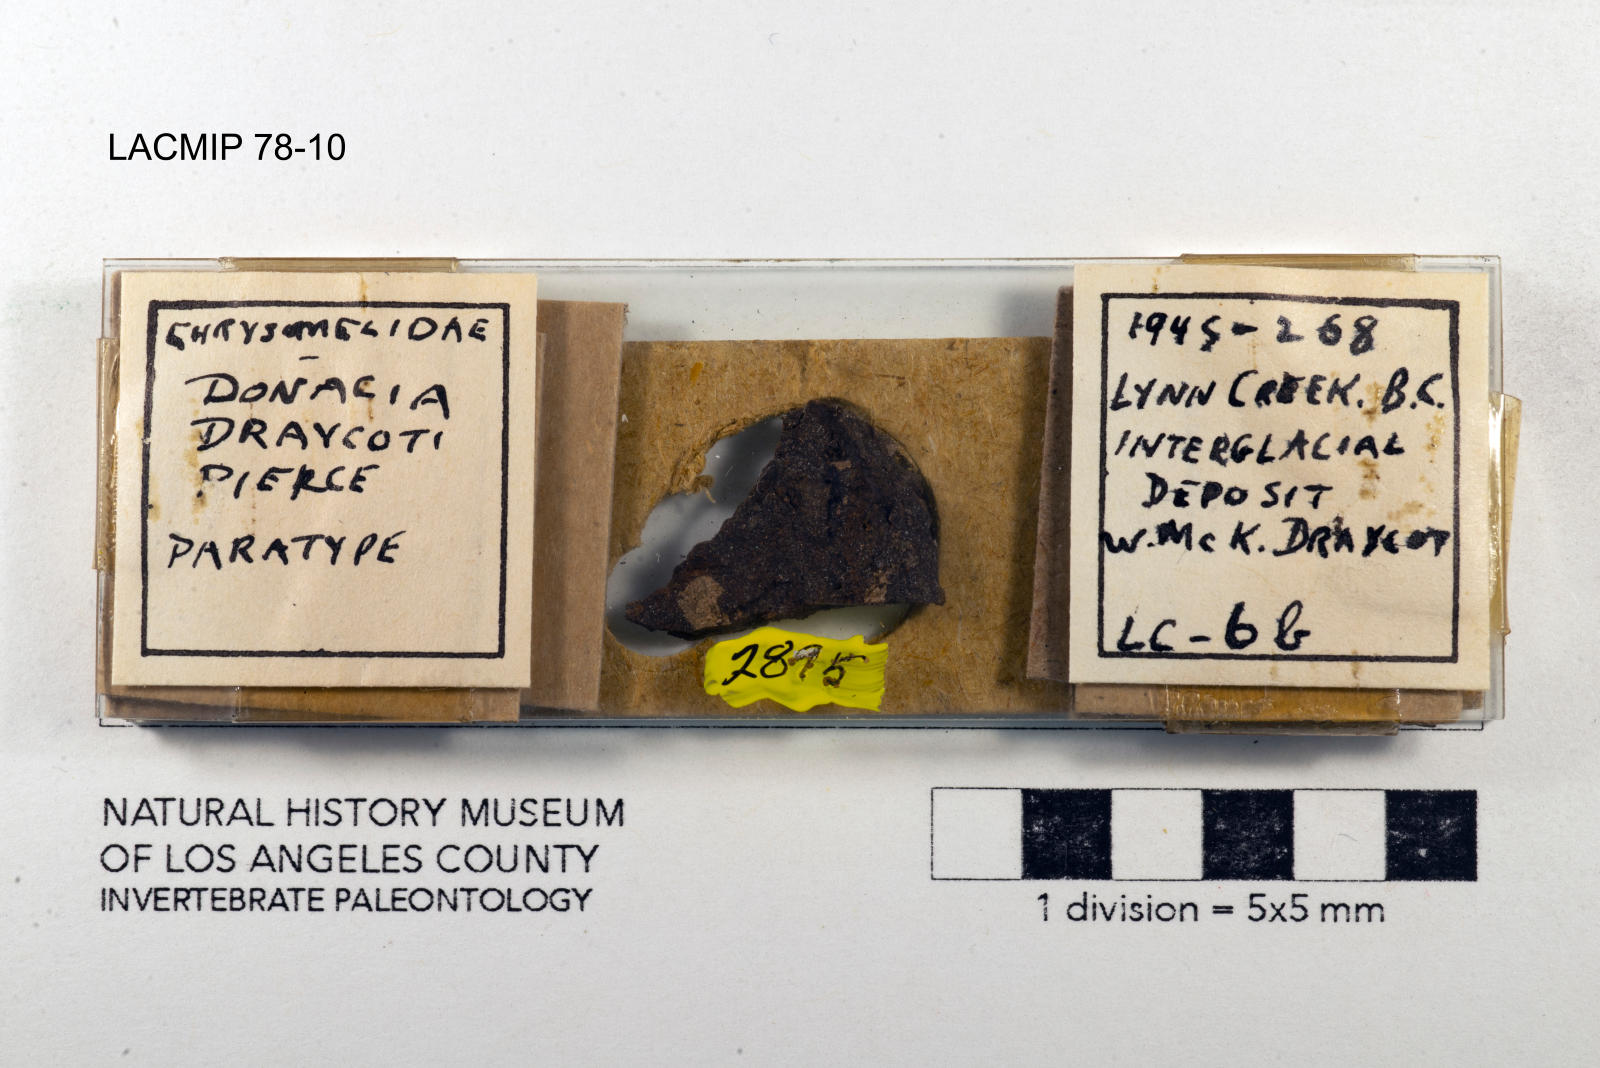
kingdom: Animalia
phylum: Arthropoda
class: Insecta
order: Coleoptera
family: Chrysomelidae
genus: Donacia
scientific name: Donacia draycoti
